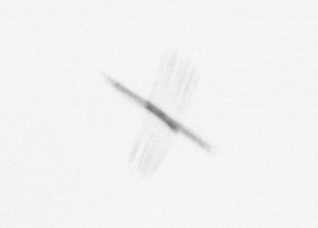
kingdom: Chromista
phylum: Ochrophyta
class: Bacillariophyceae
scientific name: Bacillariophyceae
